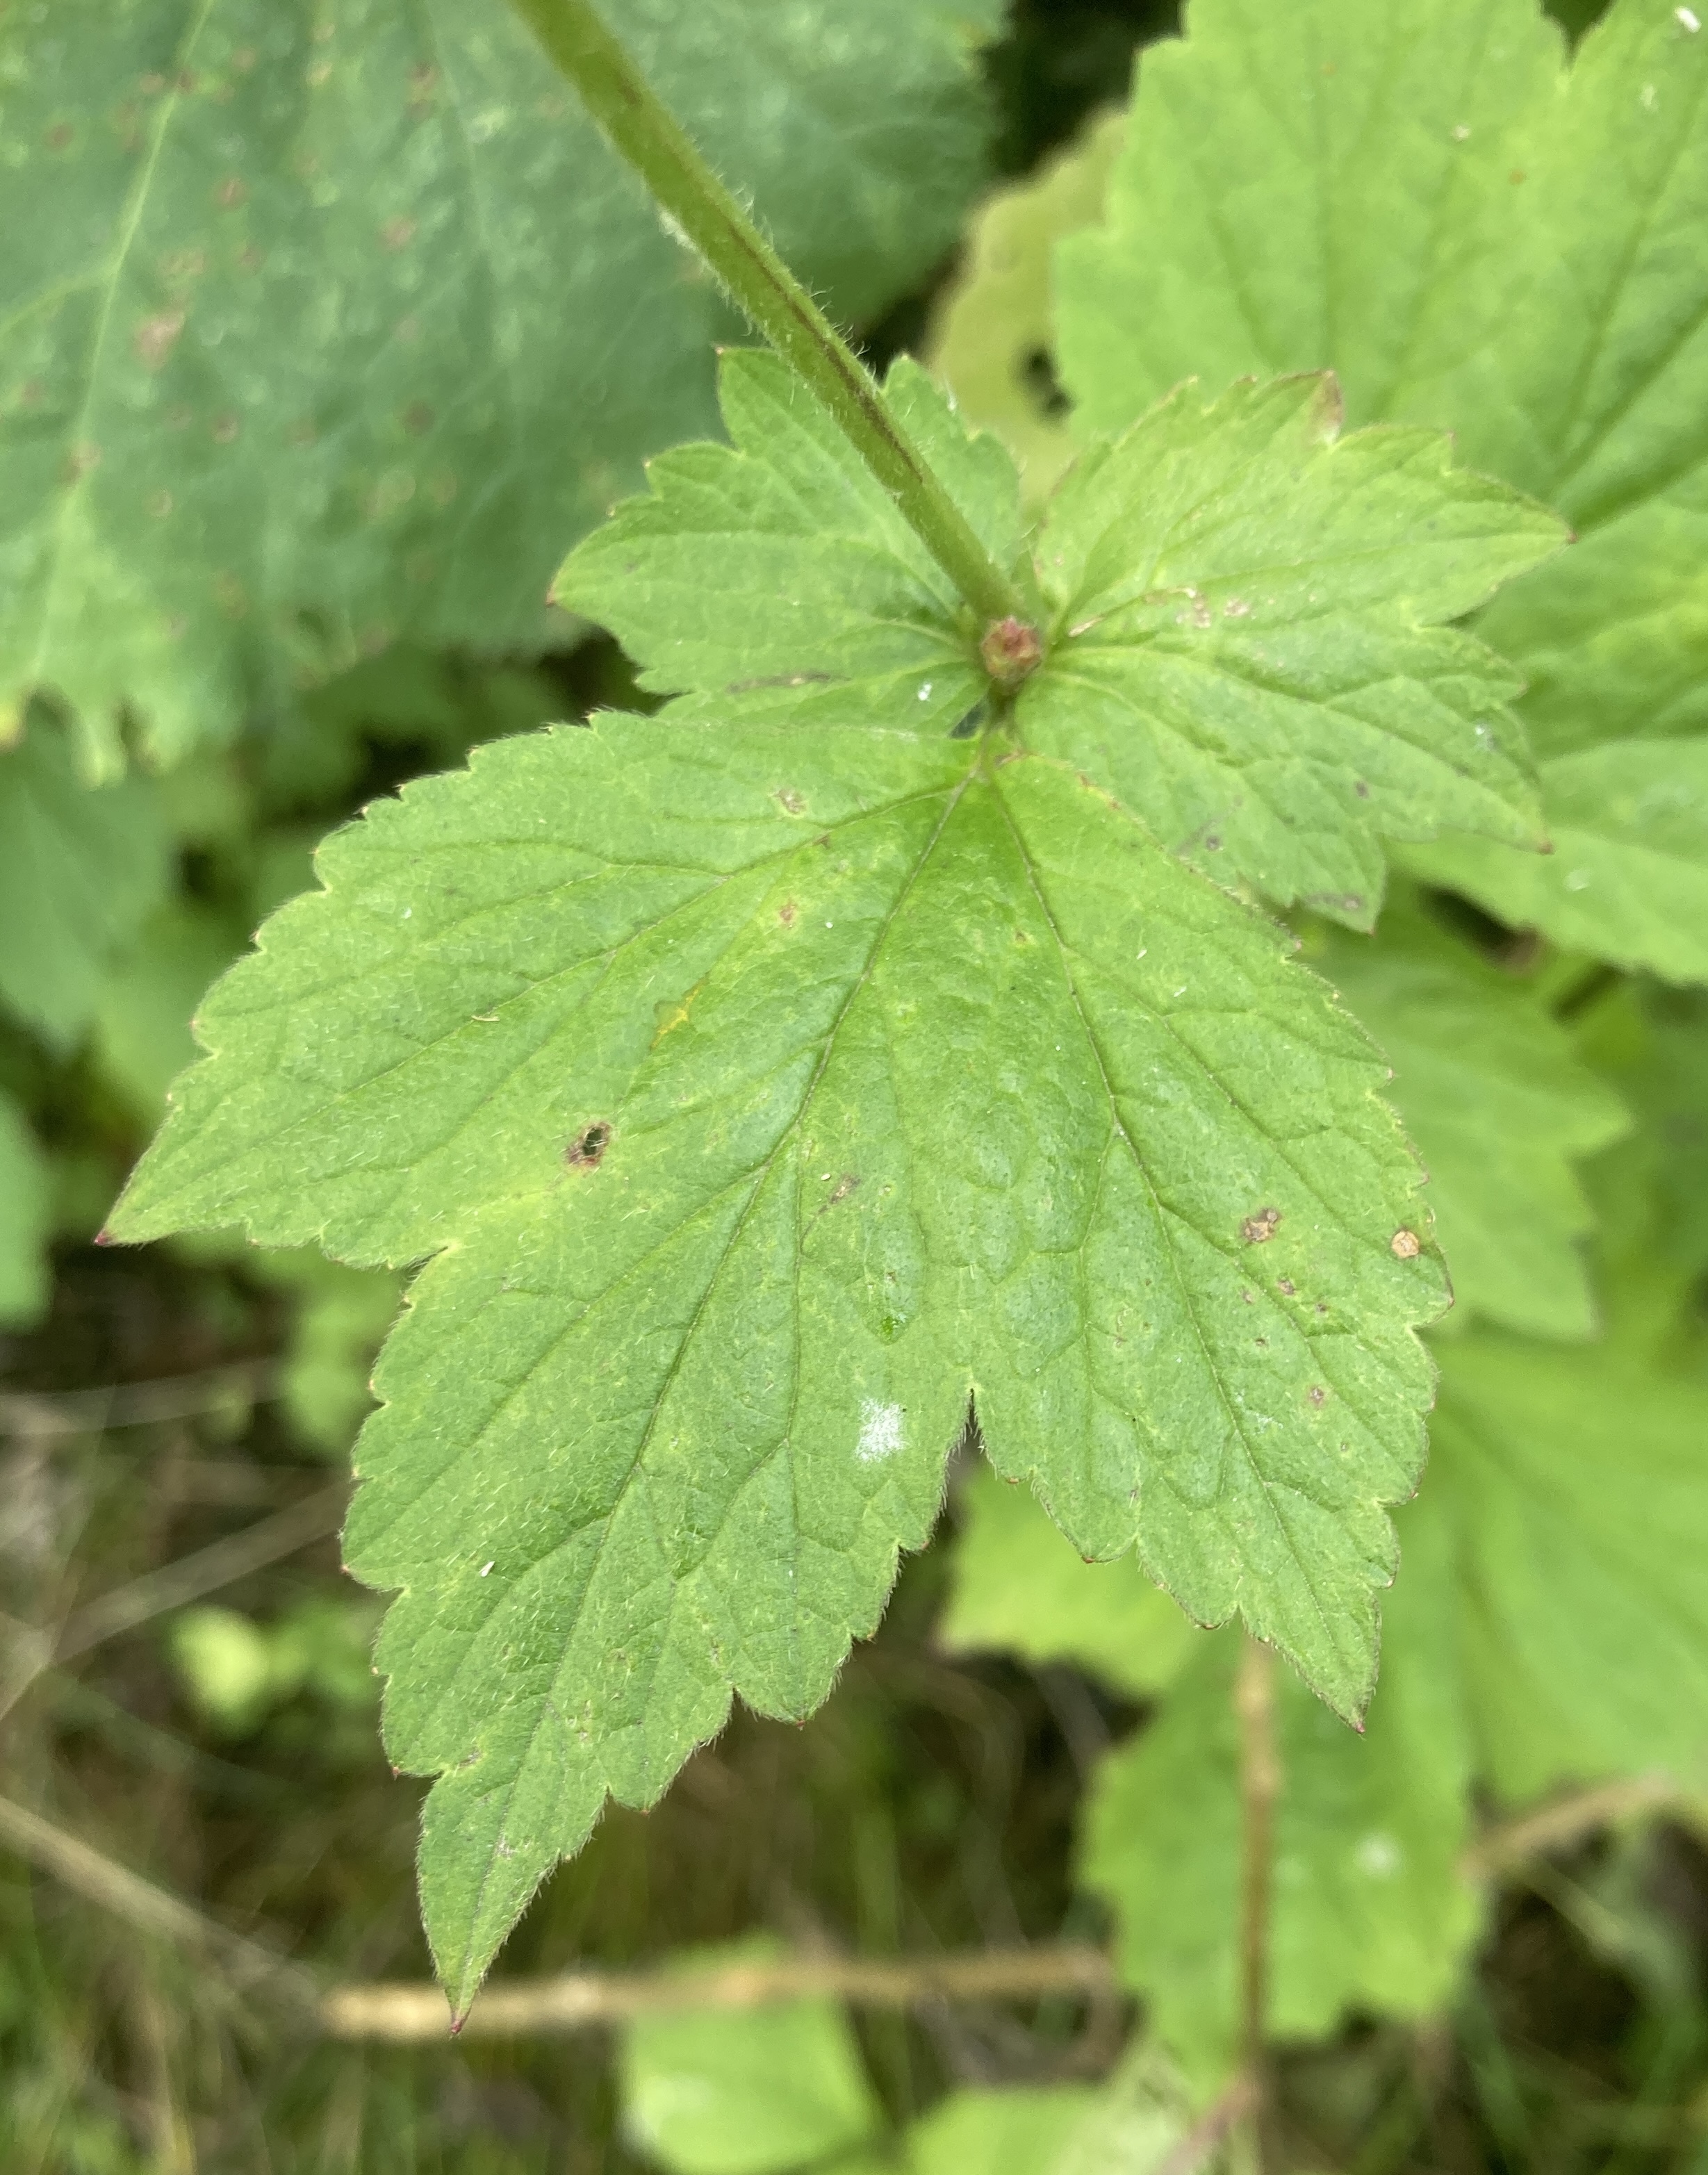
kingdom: Plantae
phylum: Tracheophyta
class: Magnoliopsida
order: Rosales
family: Rosaceae
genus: Geum
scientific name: Geum urbanum
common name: Feber-nellikerod
